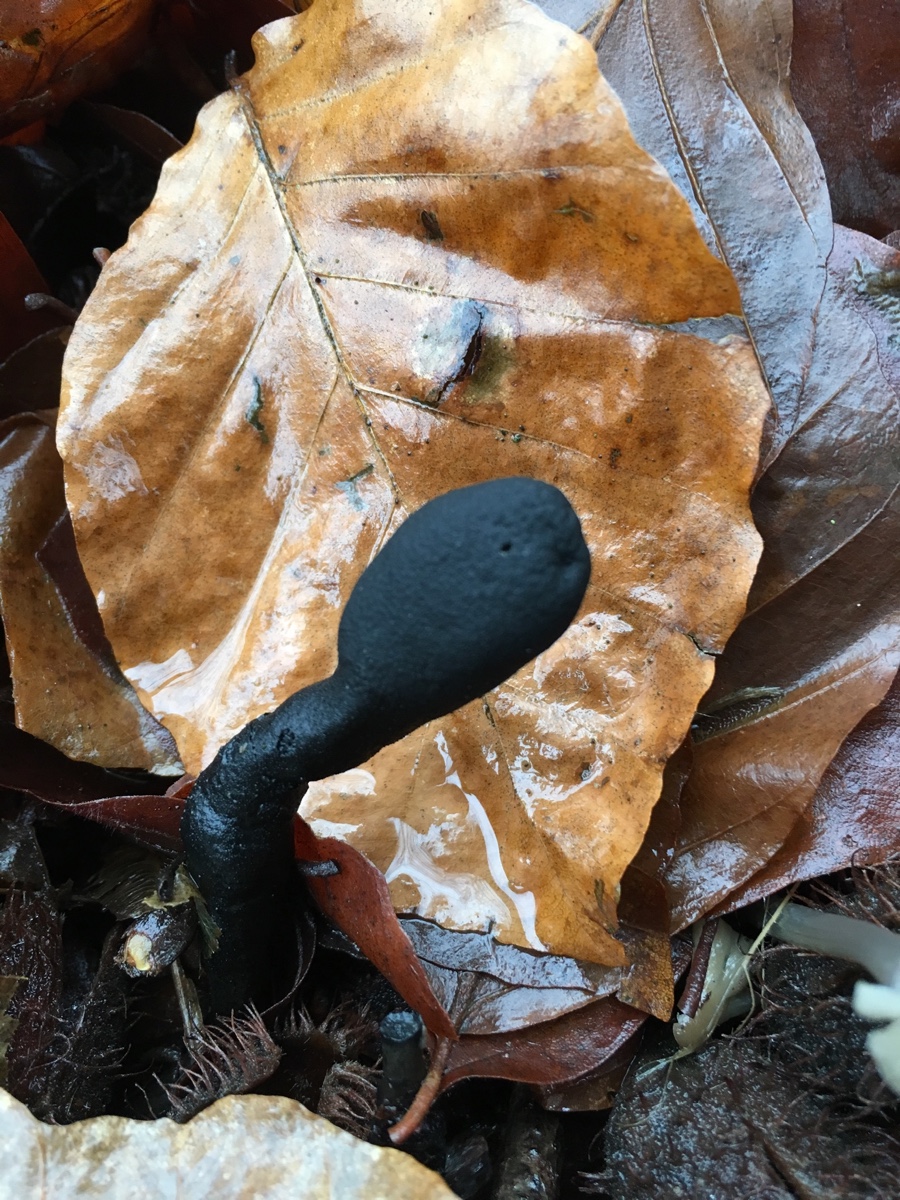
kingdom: Fungi
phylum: Ascomycota
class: Sordariomycetes
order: Xylariales
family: Xylariaceae
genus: Xylaria
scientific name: Xylaria polymorpha
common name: kølle-stødsvamp
